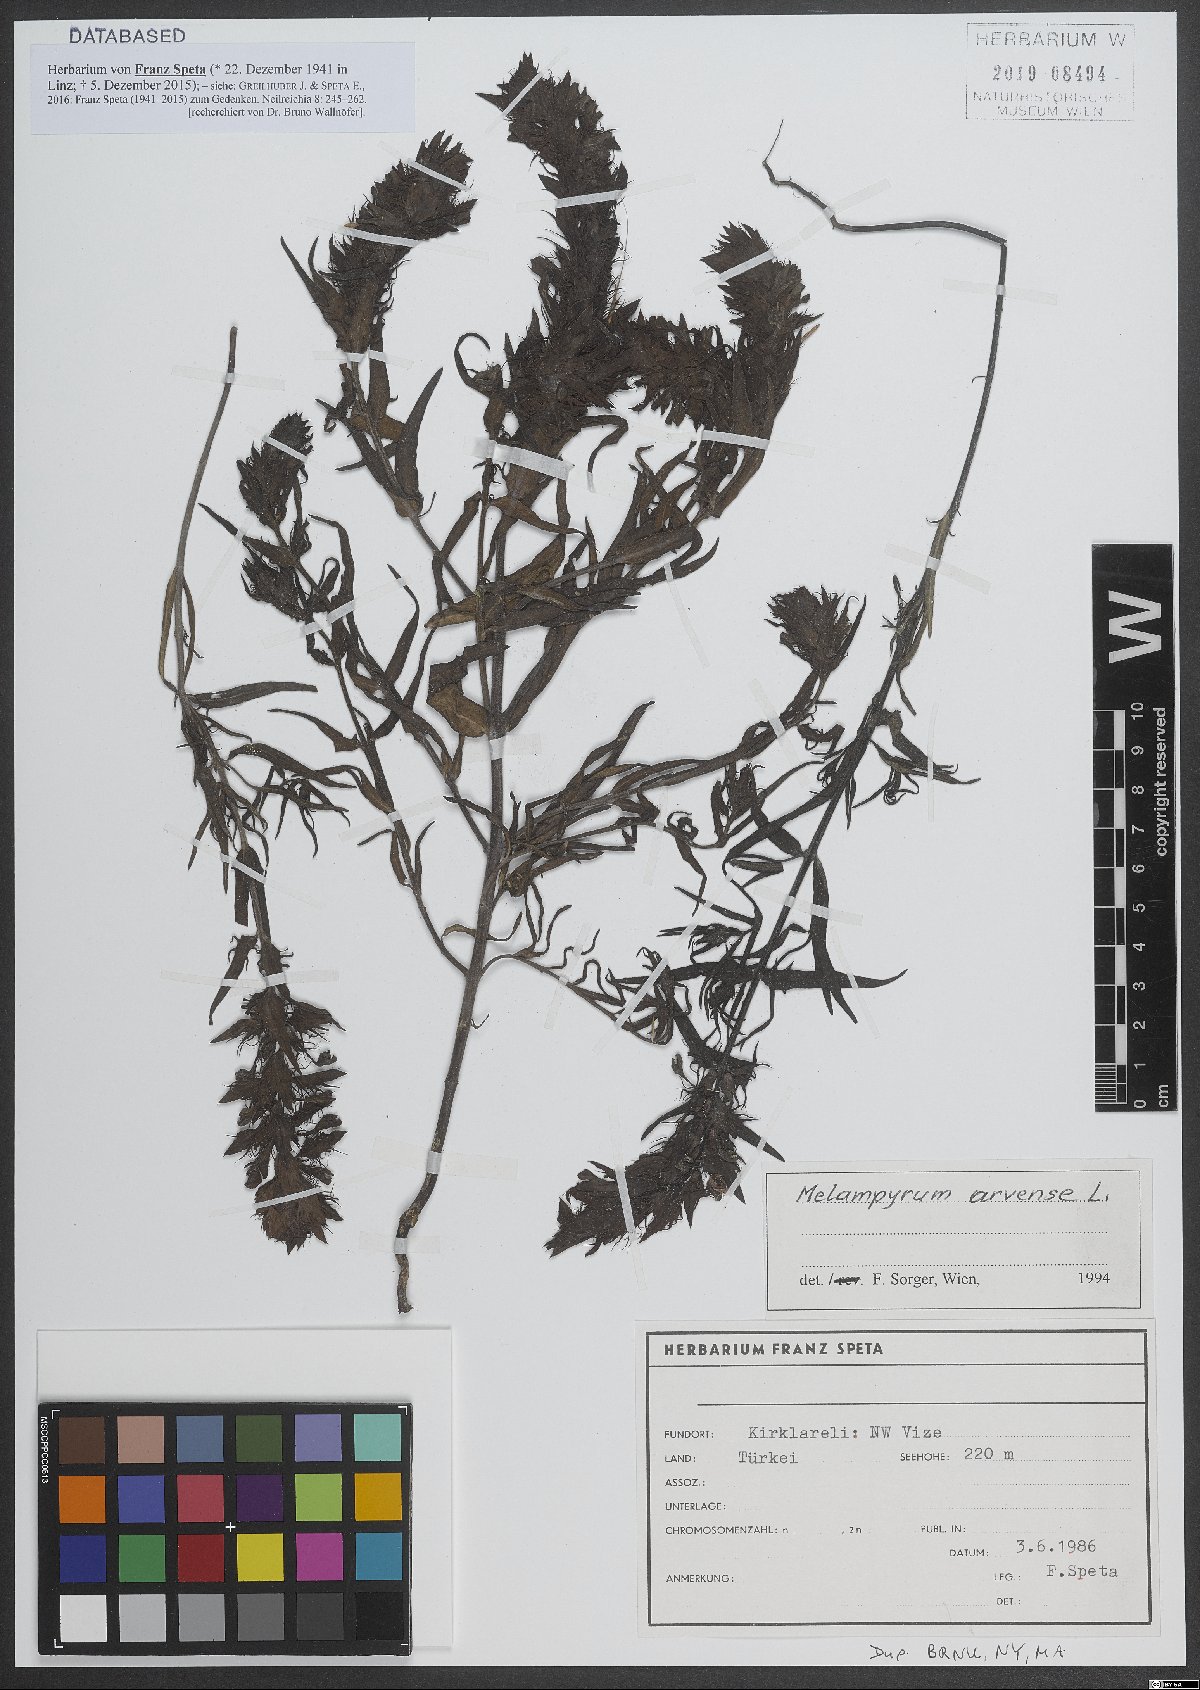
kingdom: Plantae
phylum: Tracheophyta
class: Magnoliopsida
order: Lamiales
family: Orobanchaceae
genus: Melampyrum
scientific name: Melampyrum arvense
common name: Field cow-wheat
